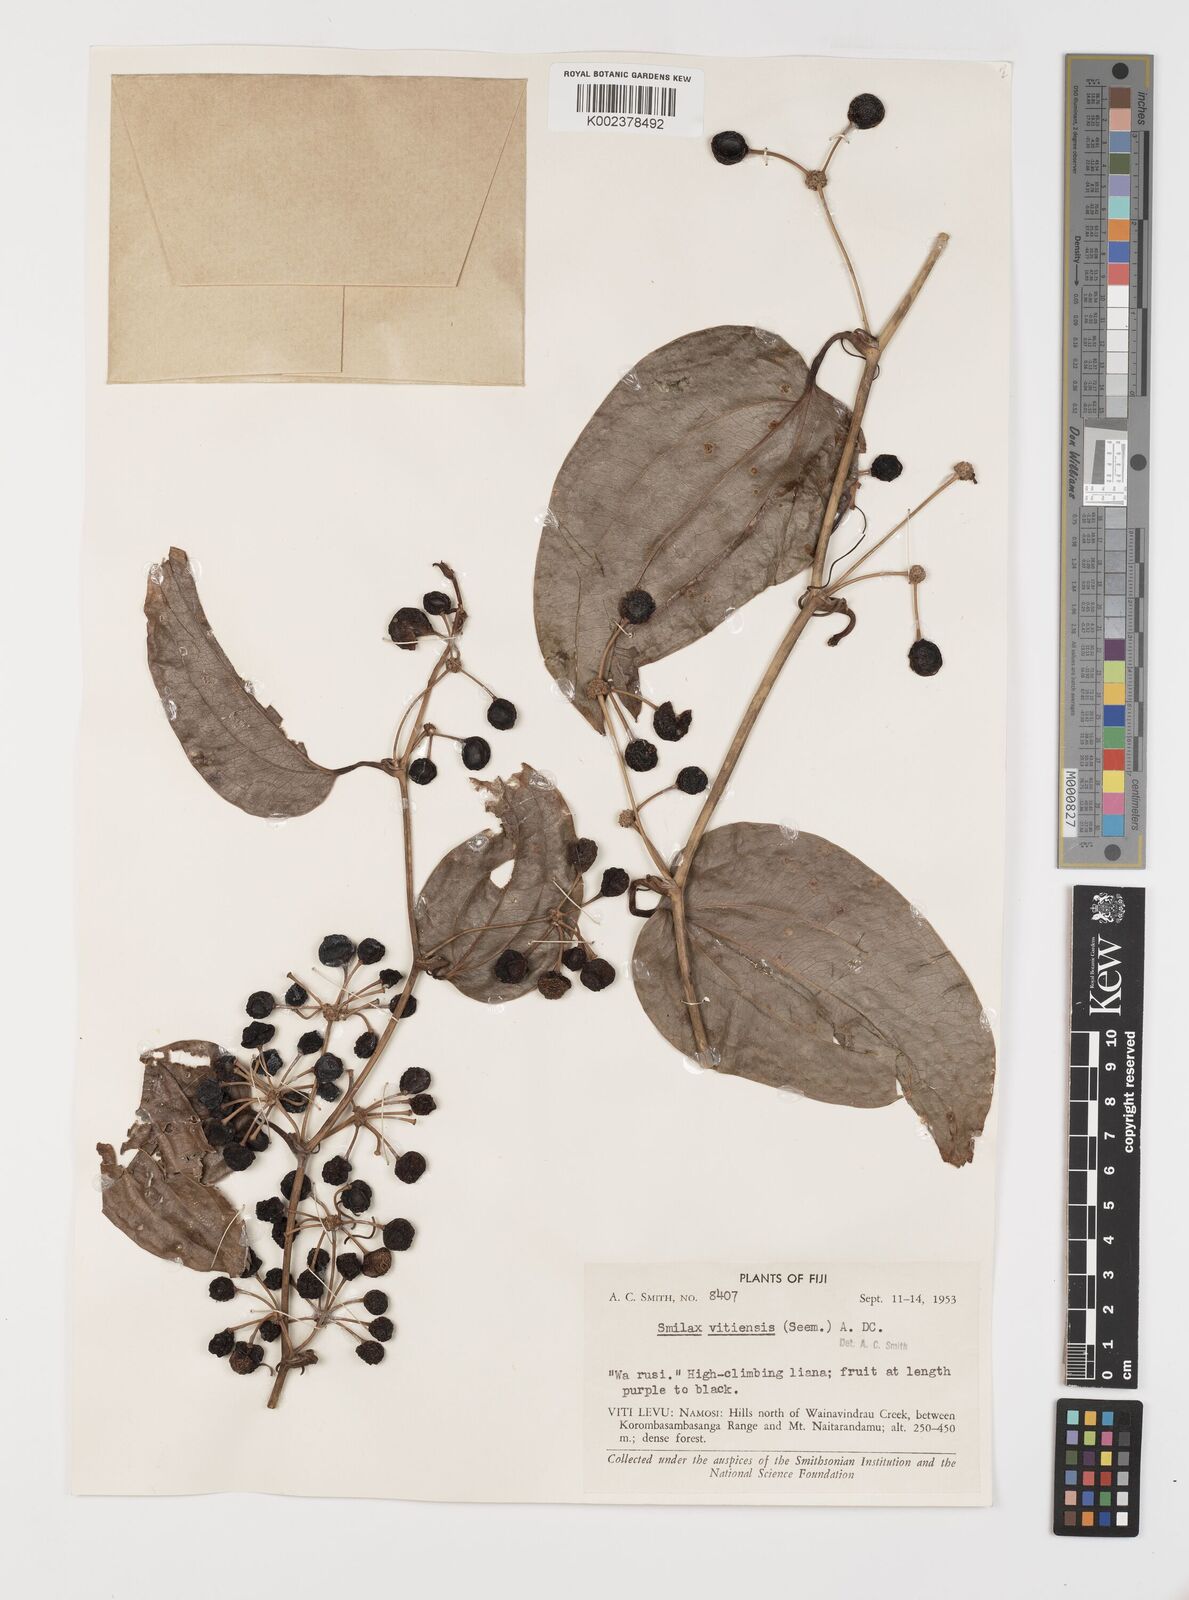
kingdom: Plantae
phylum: Tracheophyta
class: Liliopsida
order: Liliales
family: Smilacaceae
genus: Smilax
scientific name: Smilax vitiensis
